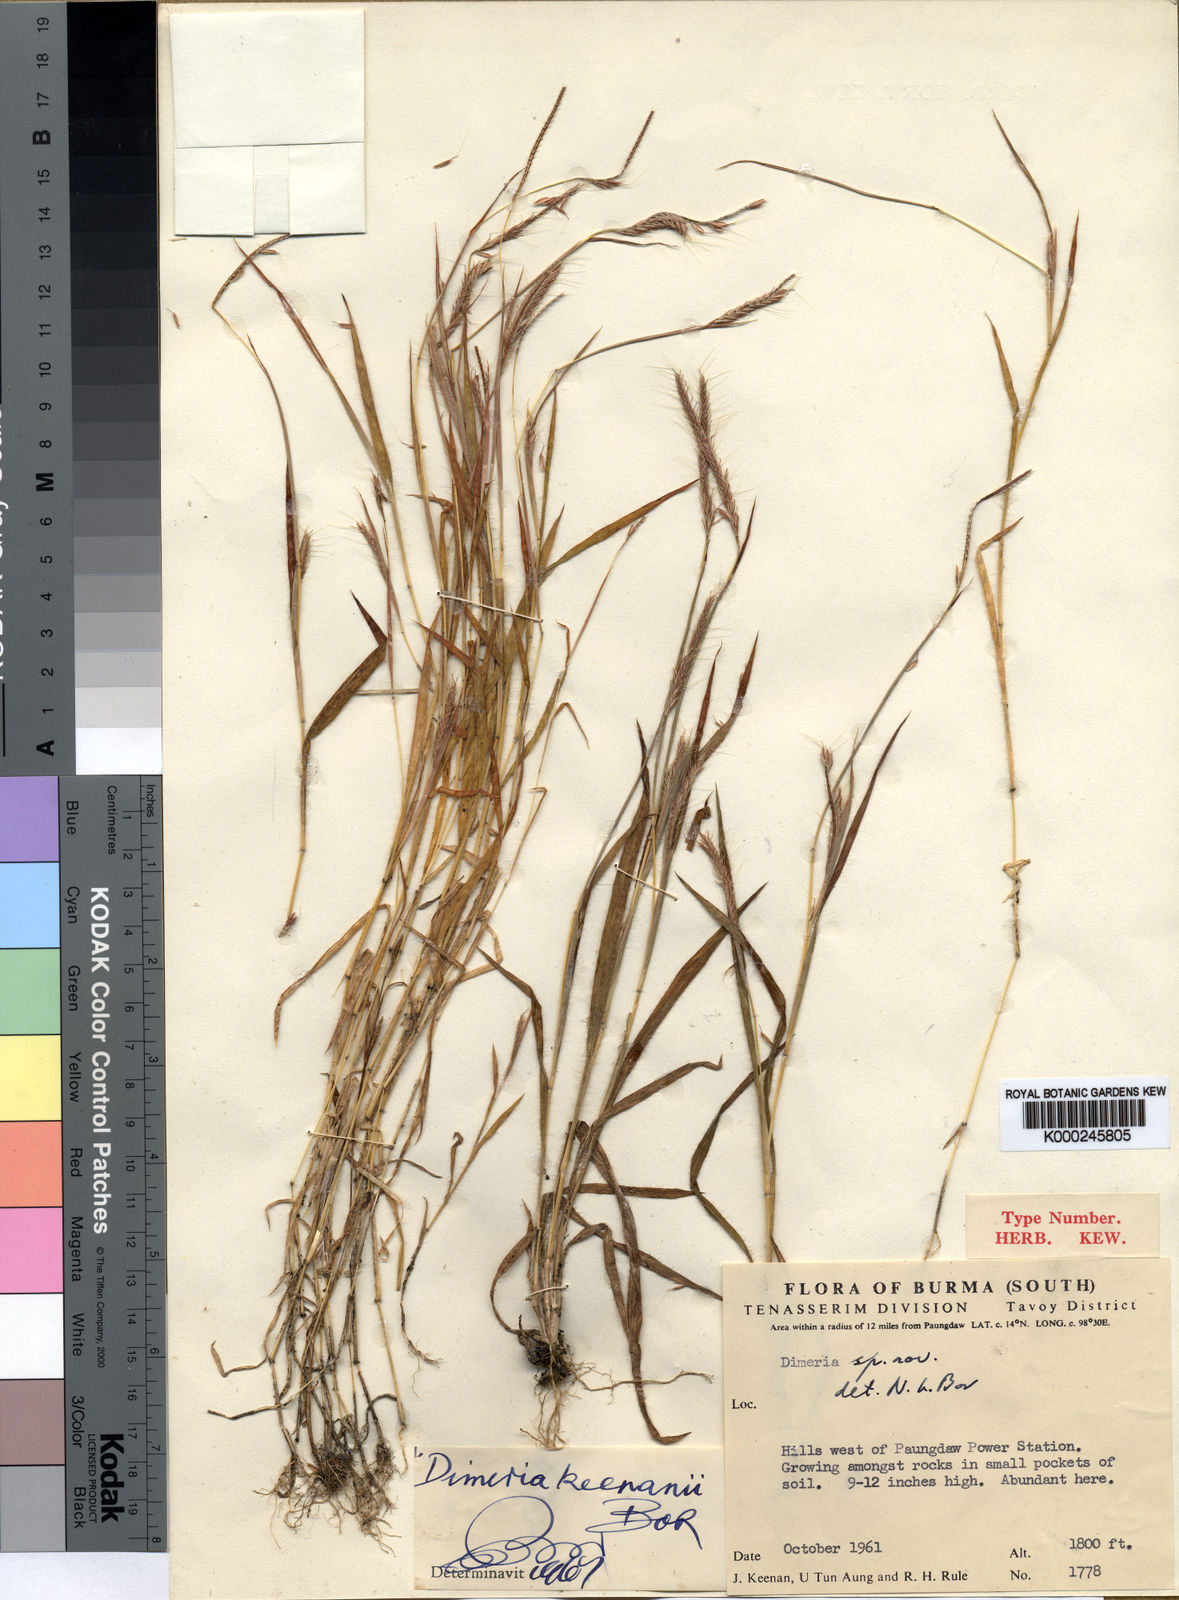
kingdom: Plantae
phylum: Tracheophyta
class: Liliopsida
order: Poales
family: Poaceae
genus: Dimeria
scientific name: Dimeria keenanii
